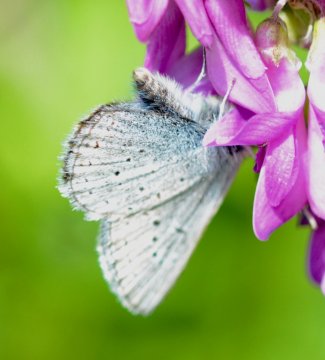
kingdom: Animalia
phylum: Arthropoda
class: Insecta
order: Lepidoptera
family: Lycaenidae
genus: Plebejus
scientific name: Plebejus saepiolus
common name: Greenish Blue
